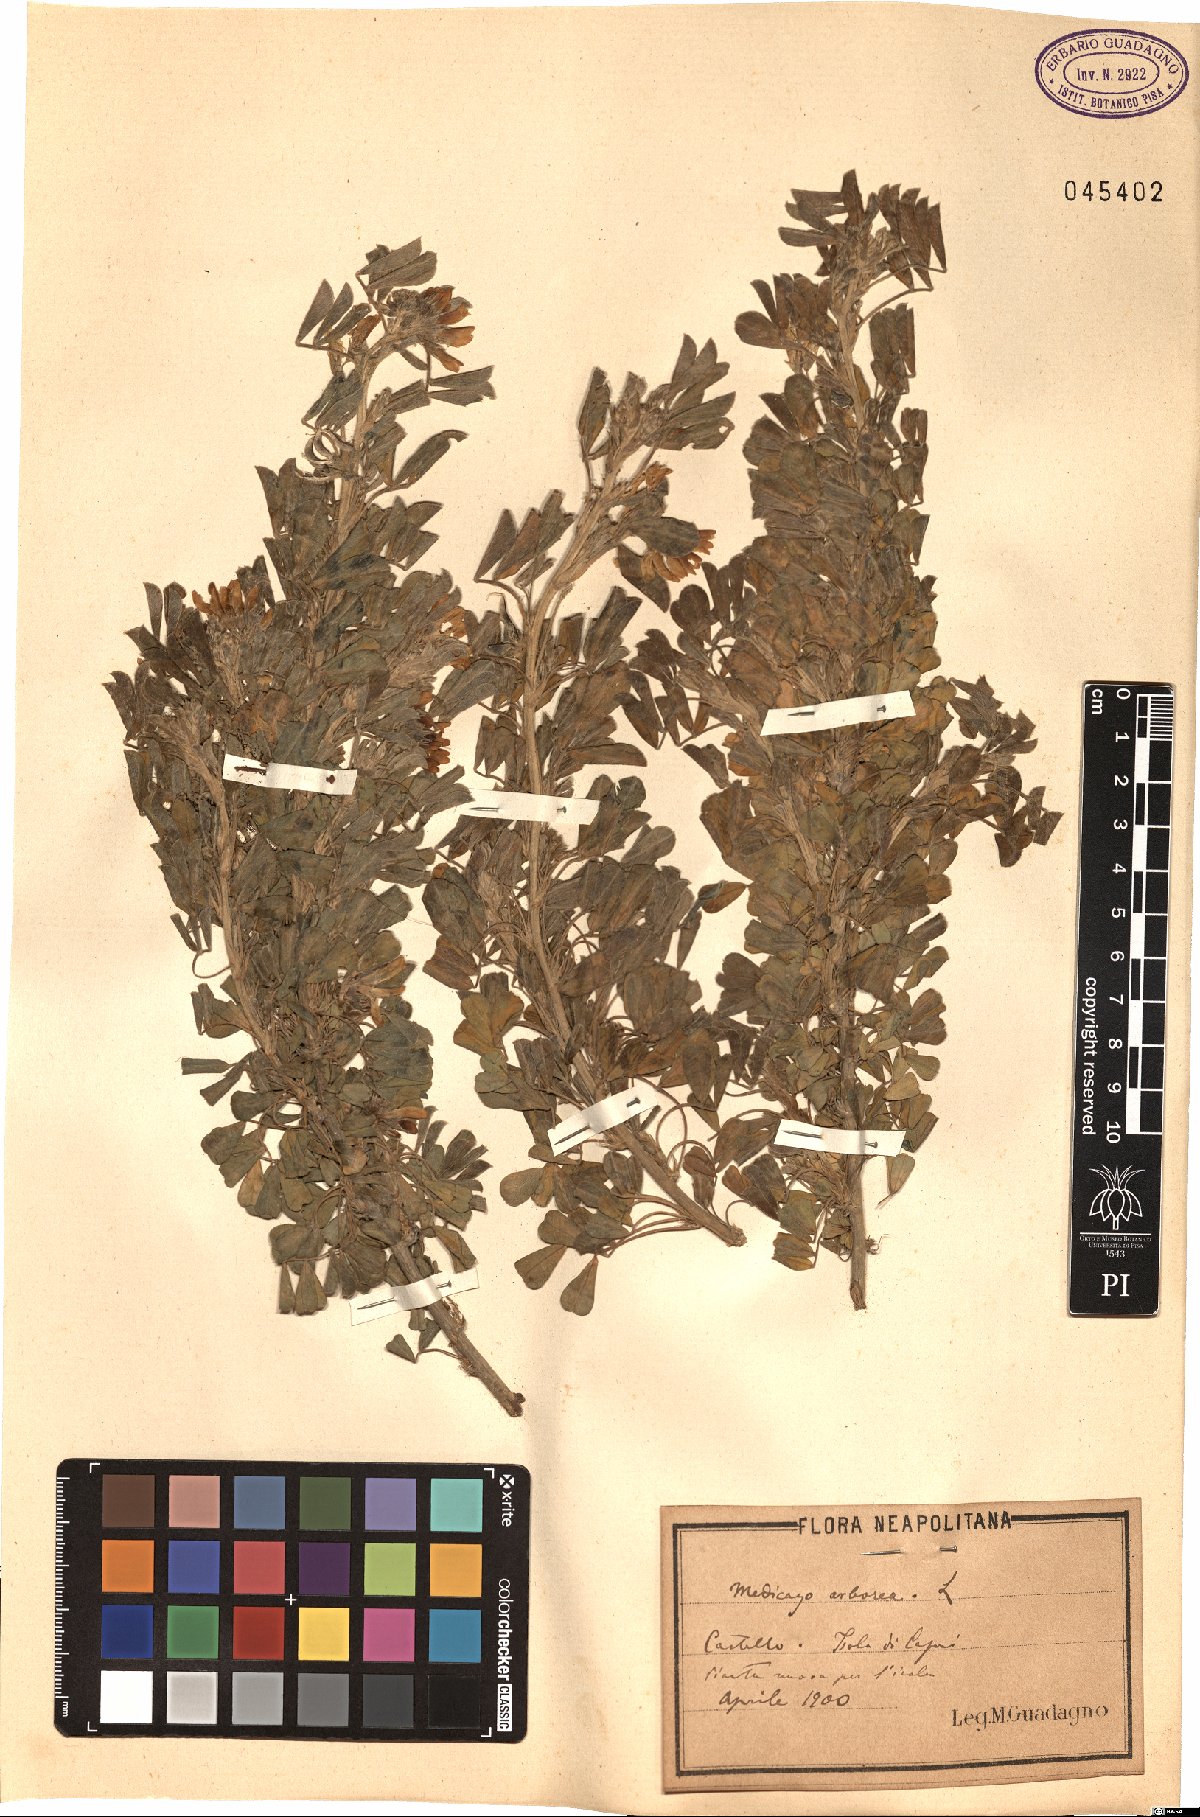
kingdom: Plantae
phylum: Tracheophyta
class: Magnoliopsida
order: Fabales
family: Fabaceae
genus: Medicago
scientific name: Medicago arborea
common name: Moon trefoil
